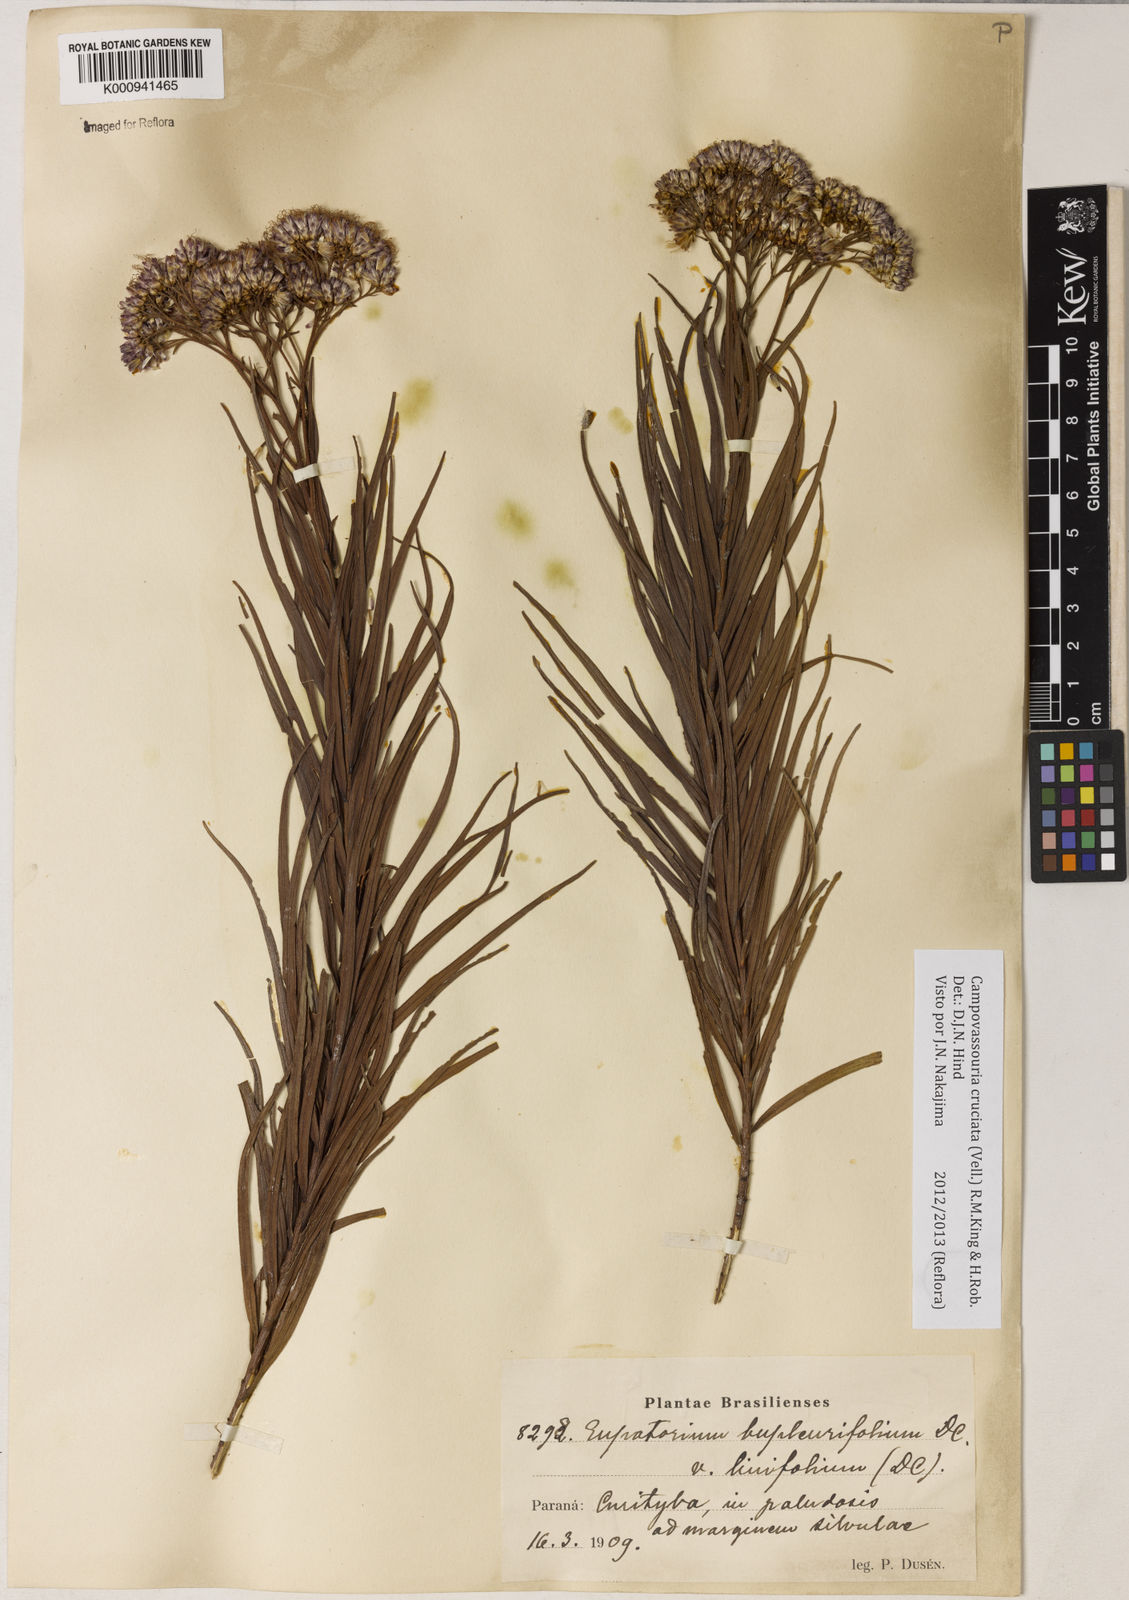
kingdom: Plantae
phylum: Tracheophyta
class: Magnoliopsida
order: Asterales
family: Asteraceae
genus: Campovassouria
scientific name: Campovassouria cruciata
